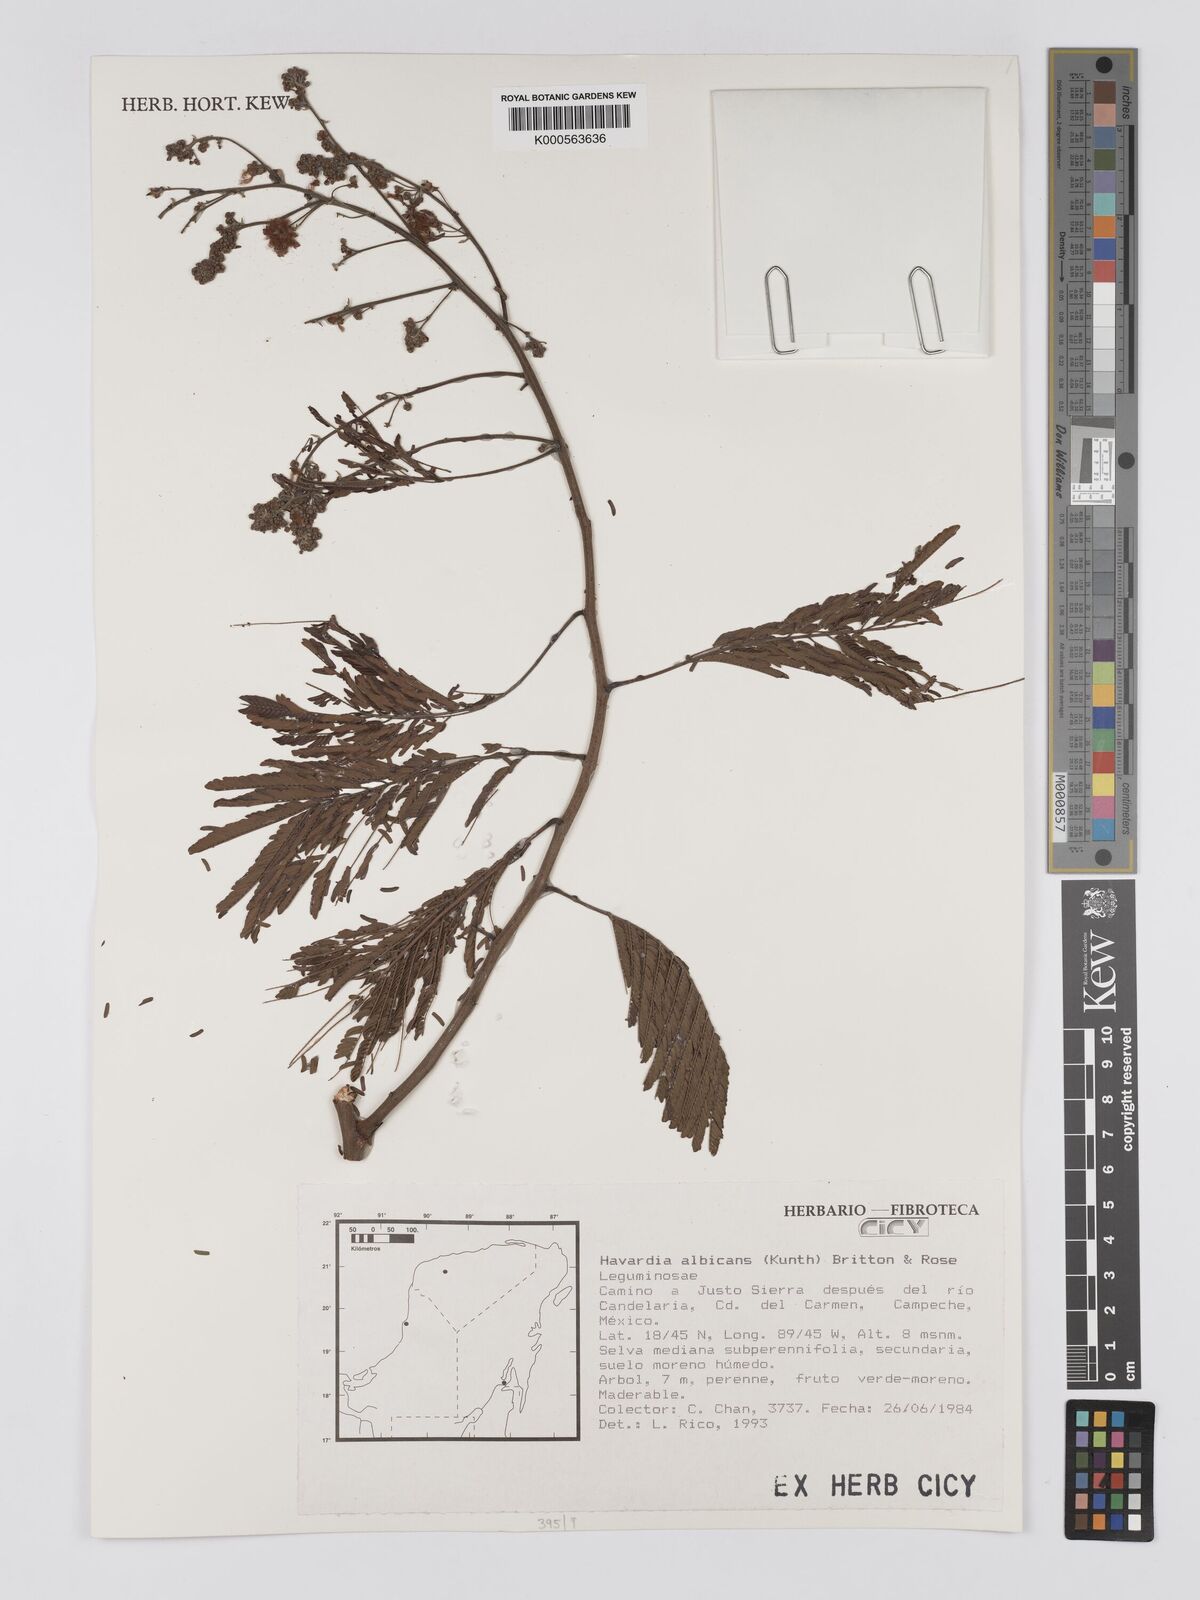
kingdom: Plantae
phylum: Tracheophyta
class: Magnoliopsida
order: Fabales
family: Fabaceae
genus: Havardia
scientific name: Havardia albicans
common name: Huisache
